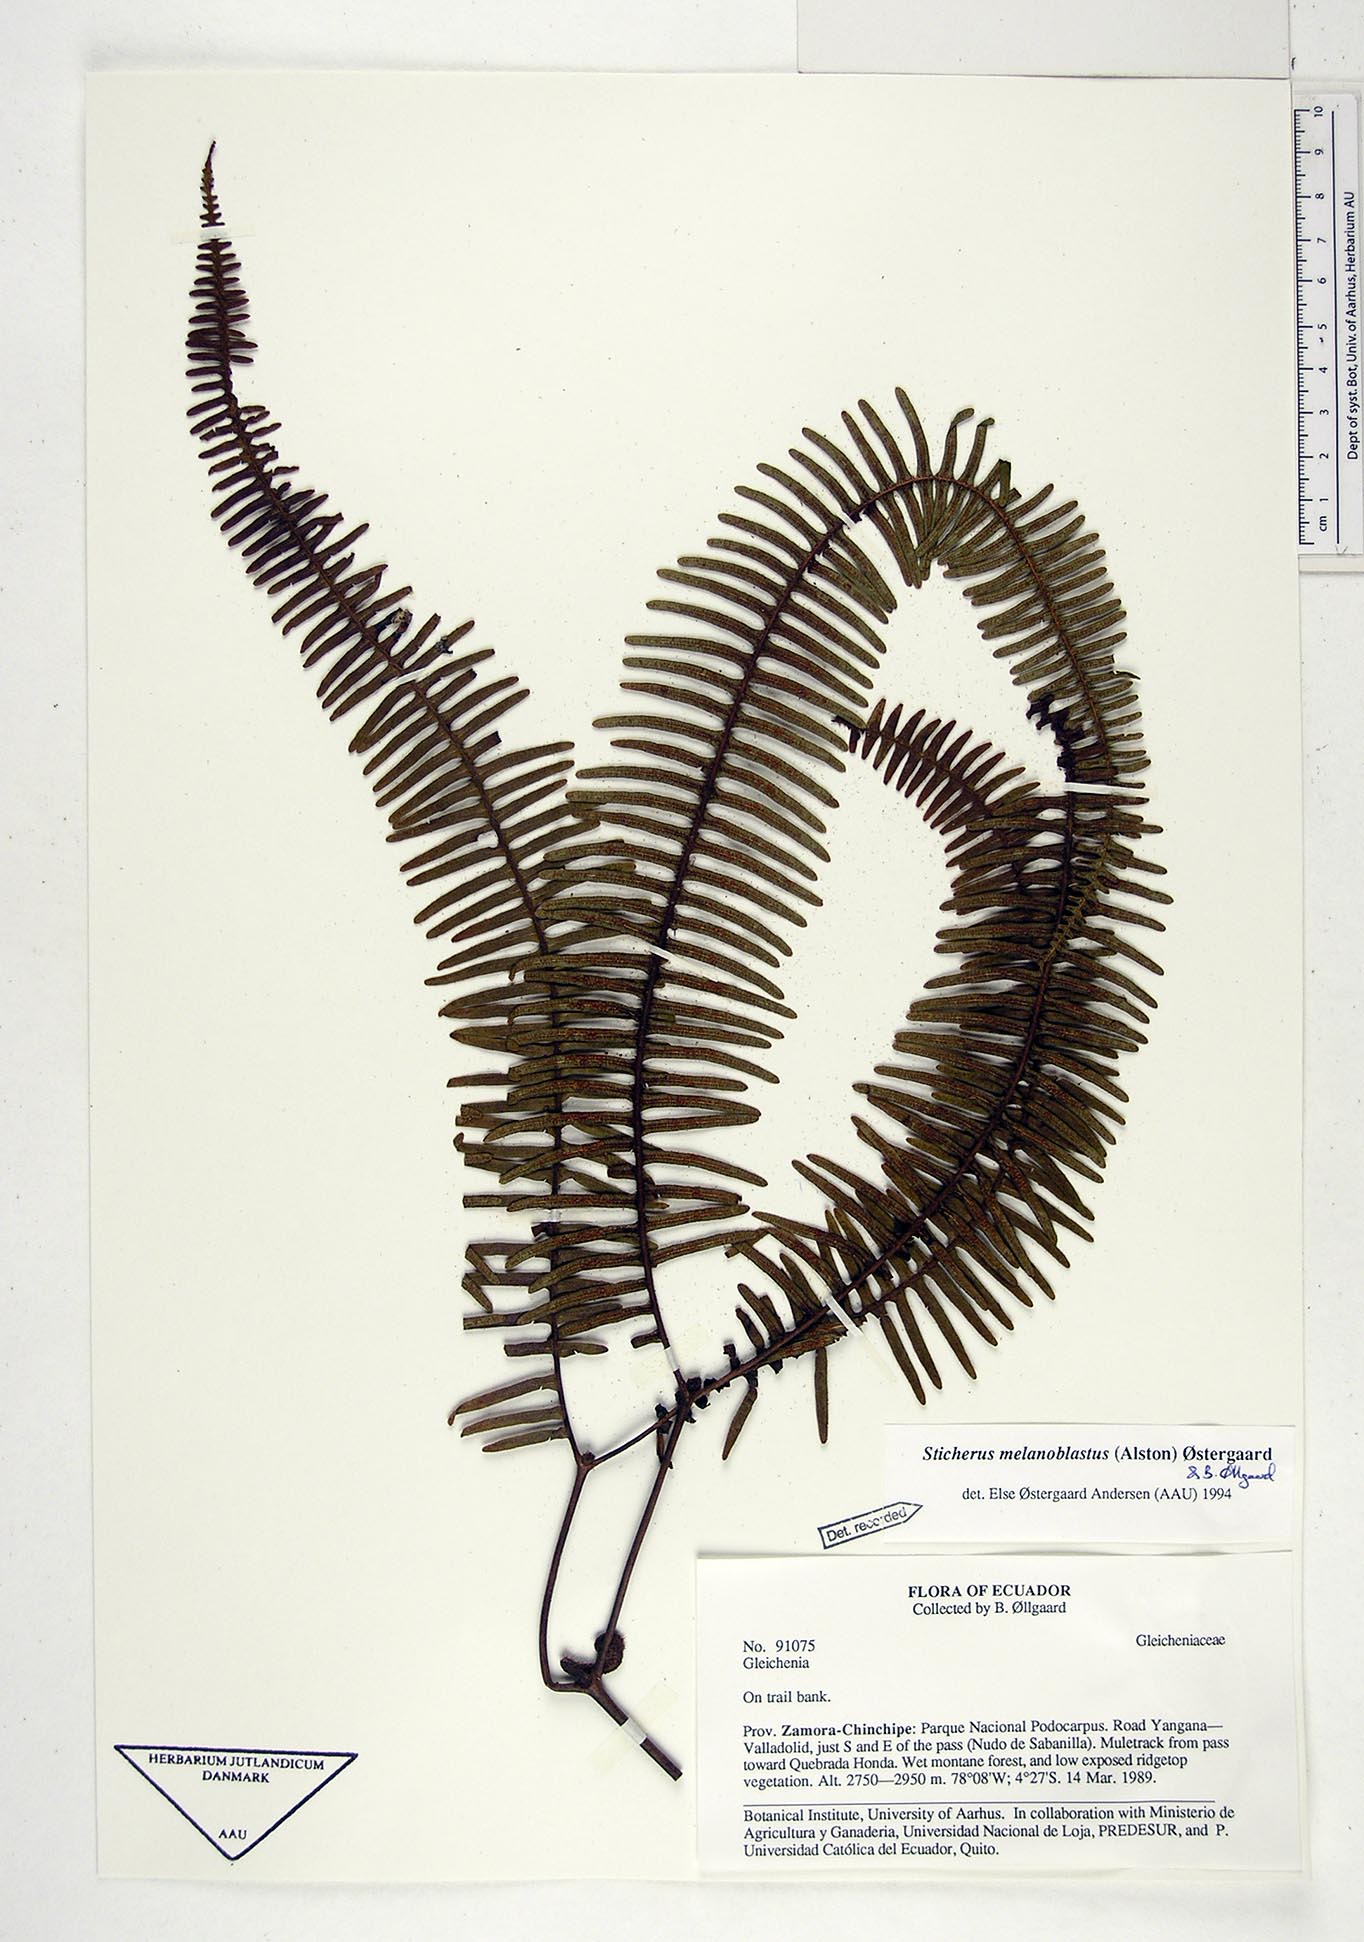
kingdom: Plantae
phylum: Tracheophyta
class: Polypodiopsida
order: Gleicheniales
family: Gleicheniaceae
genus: Sticherus
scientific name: Sticherus melanoblastus
